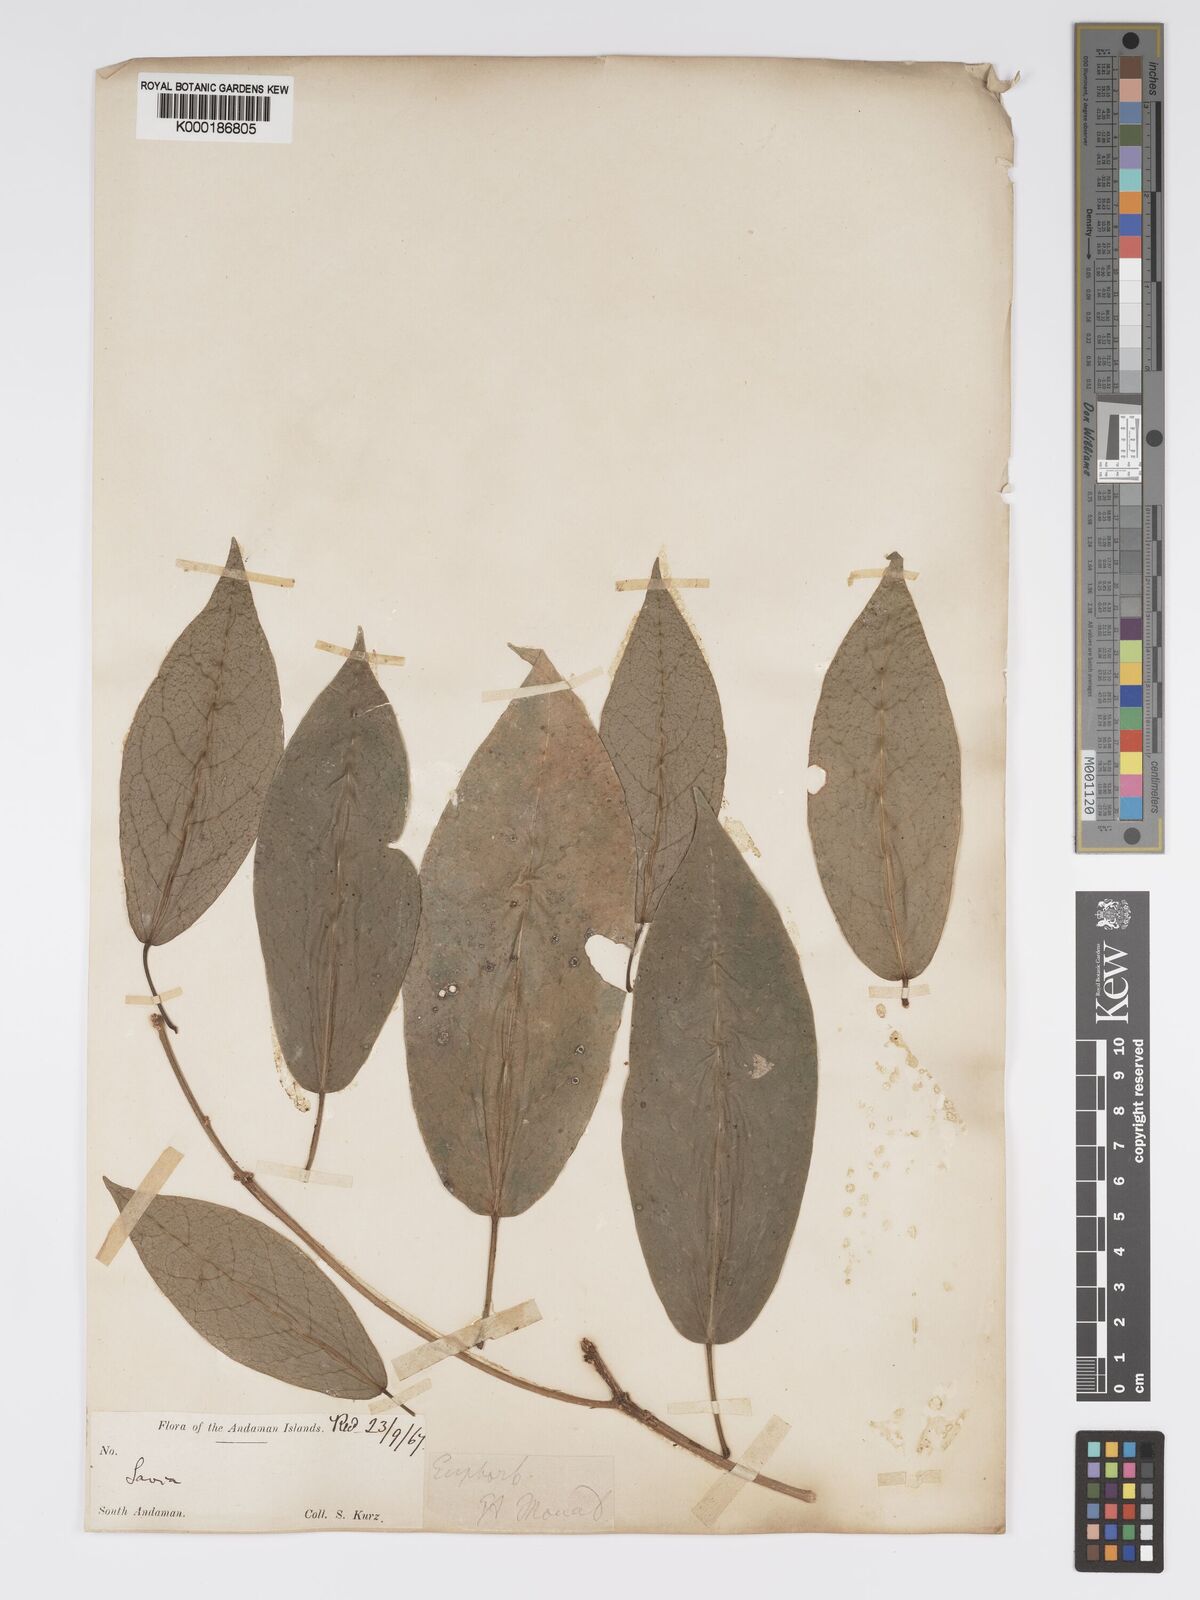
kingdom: Plantae
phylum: Tracheophyta
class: Magnoliopsida
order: Malpighiales
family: Phyllanthaceae
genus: Actephila
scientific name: Actephila excelsa
